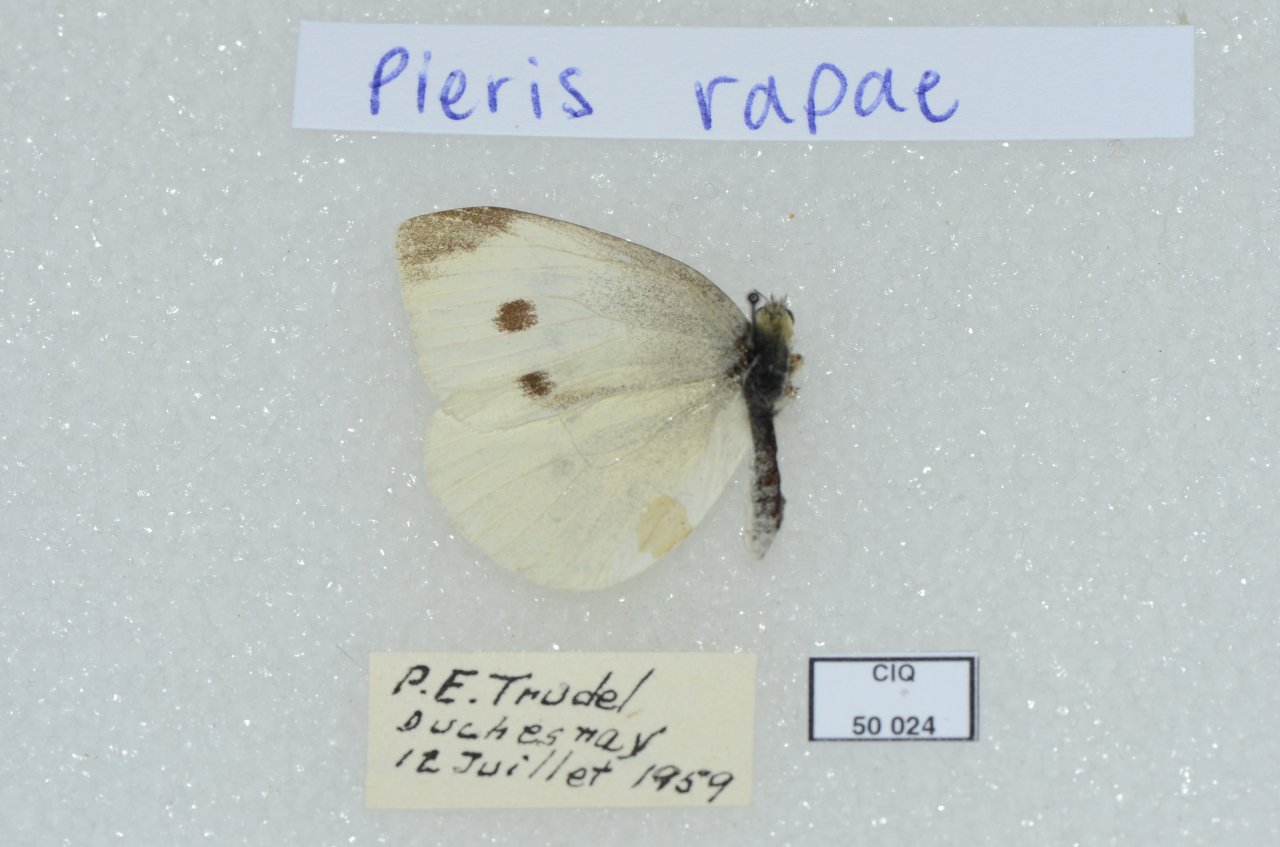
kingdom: Animalia
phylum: Arthropoda
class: Insecta
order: Lepidoptera
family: Pieridae
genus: Pieris
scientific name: Pieris rapae
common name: Cabbage White
